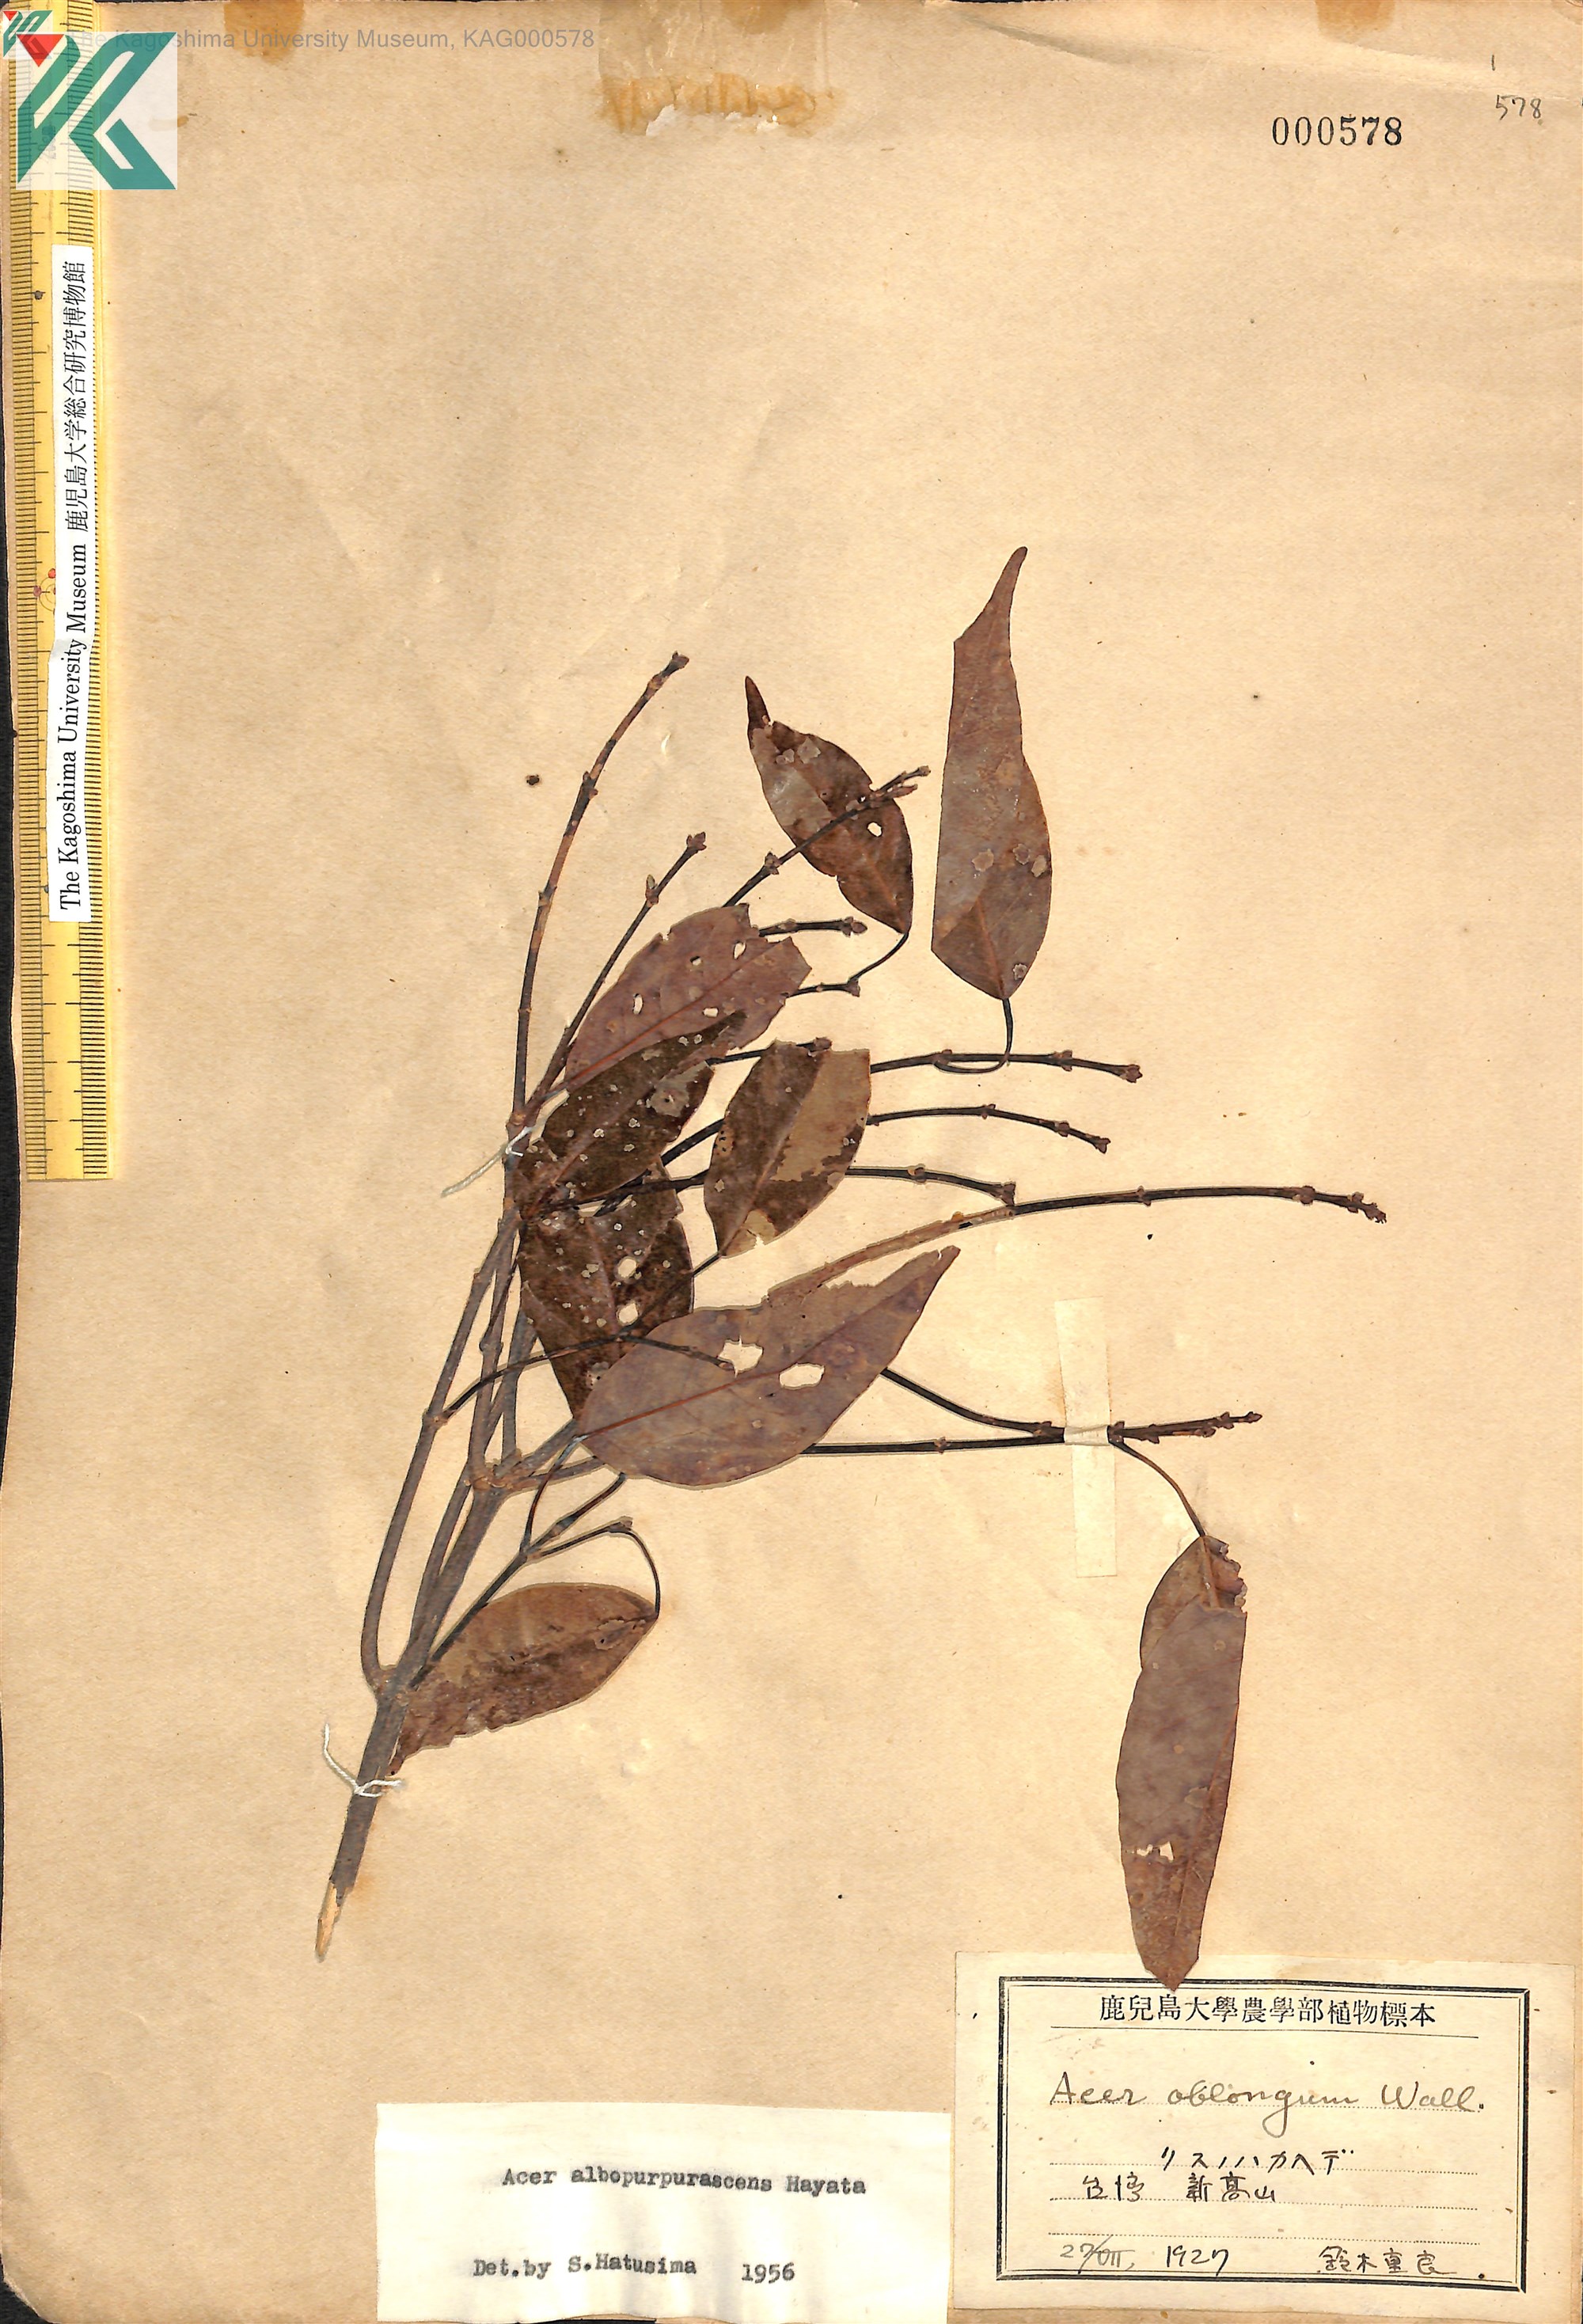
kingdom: Plantae
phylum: Tracheophyta
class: Magnoliopsida
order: Sapindales
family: Sapindaceae
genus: Acer
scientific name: Acer oblongum
